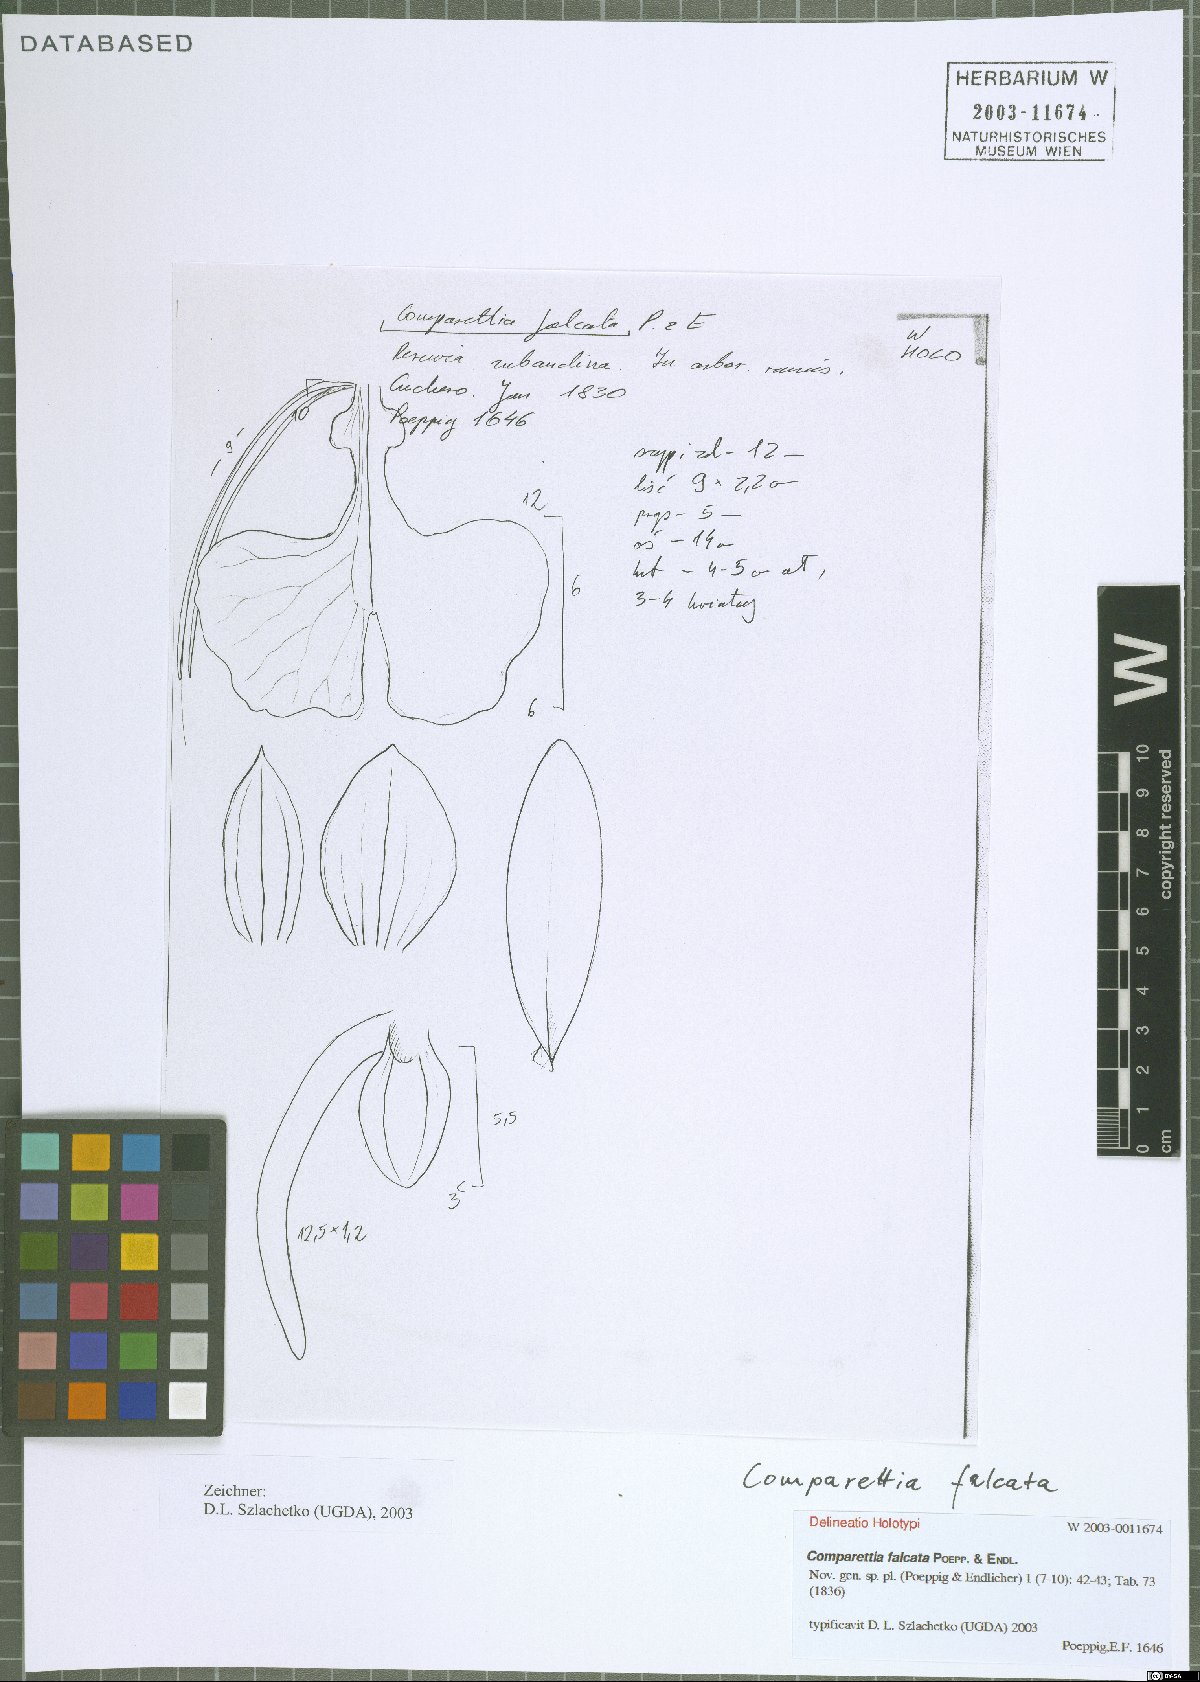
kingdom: Plantae
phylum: Tracheophyta
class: Liliopsida
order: Asparagales
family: Orchidaceae
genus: Comparettia
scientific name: Comparettia falcata
